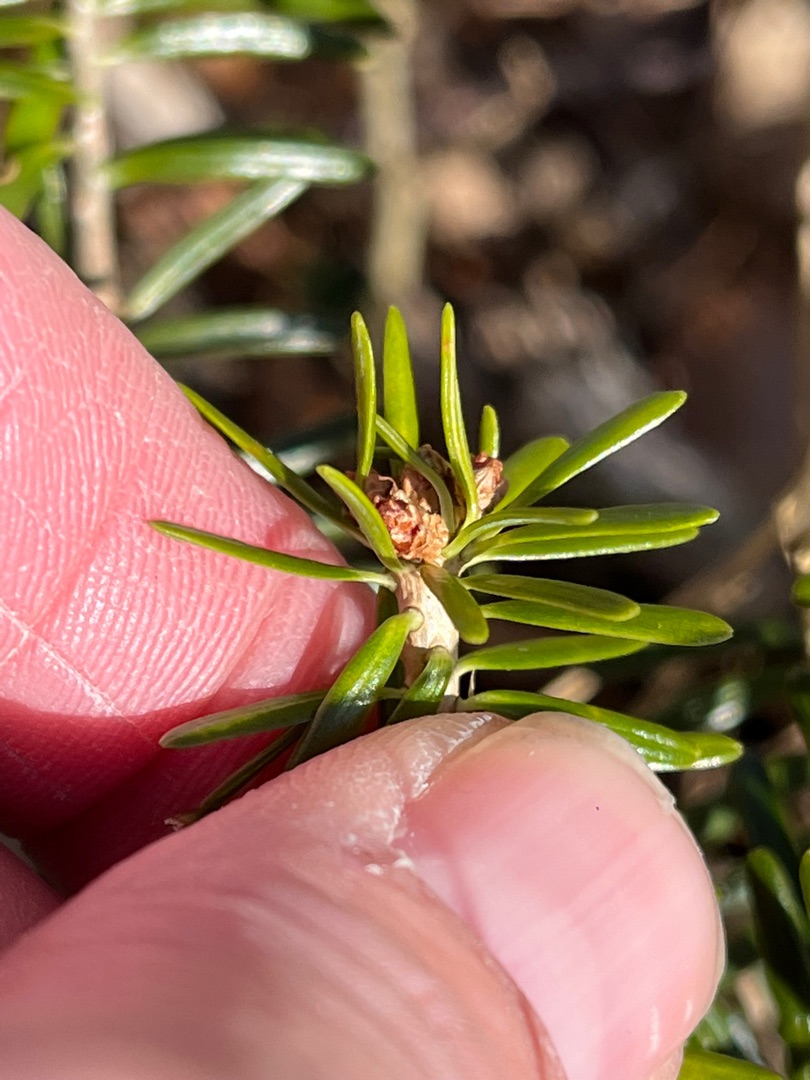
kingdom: Plantae
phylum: Tracheophyta
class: Pinopsida
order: Pinales
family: Pinaceae
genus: Abies
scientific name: Abies alba
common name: Almindelig ædelgran
